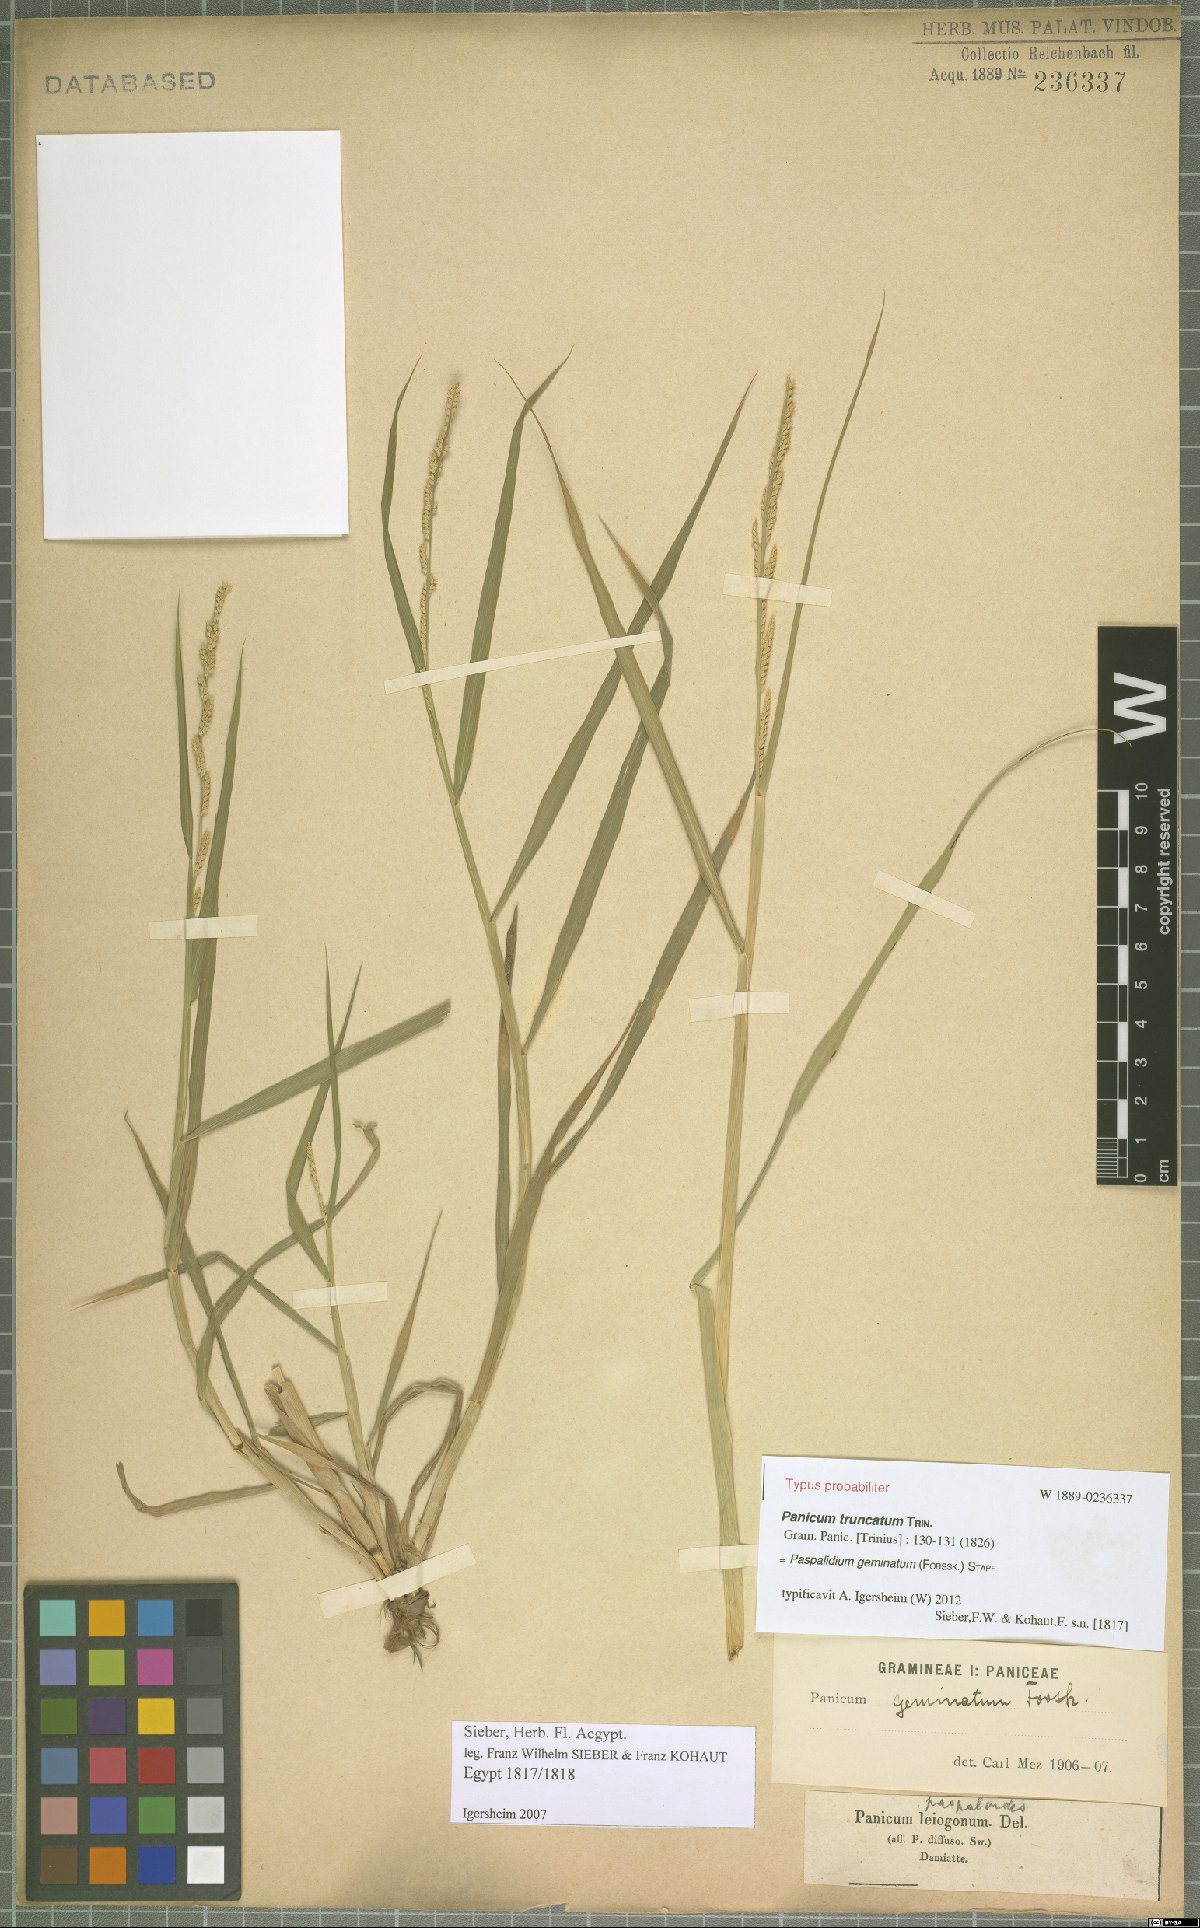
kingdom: Plantae
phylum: Tracheophyta
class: Liliopsida
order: Poales
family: Poaceae
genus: Setaria
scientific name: Setaria geminata
